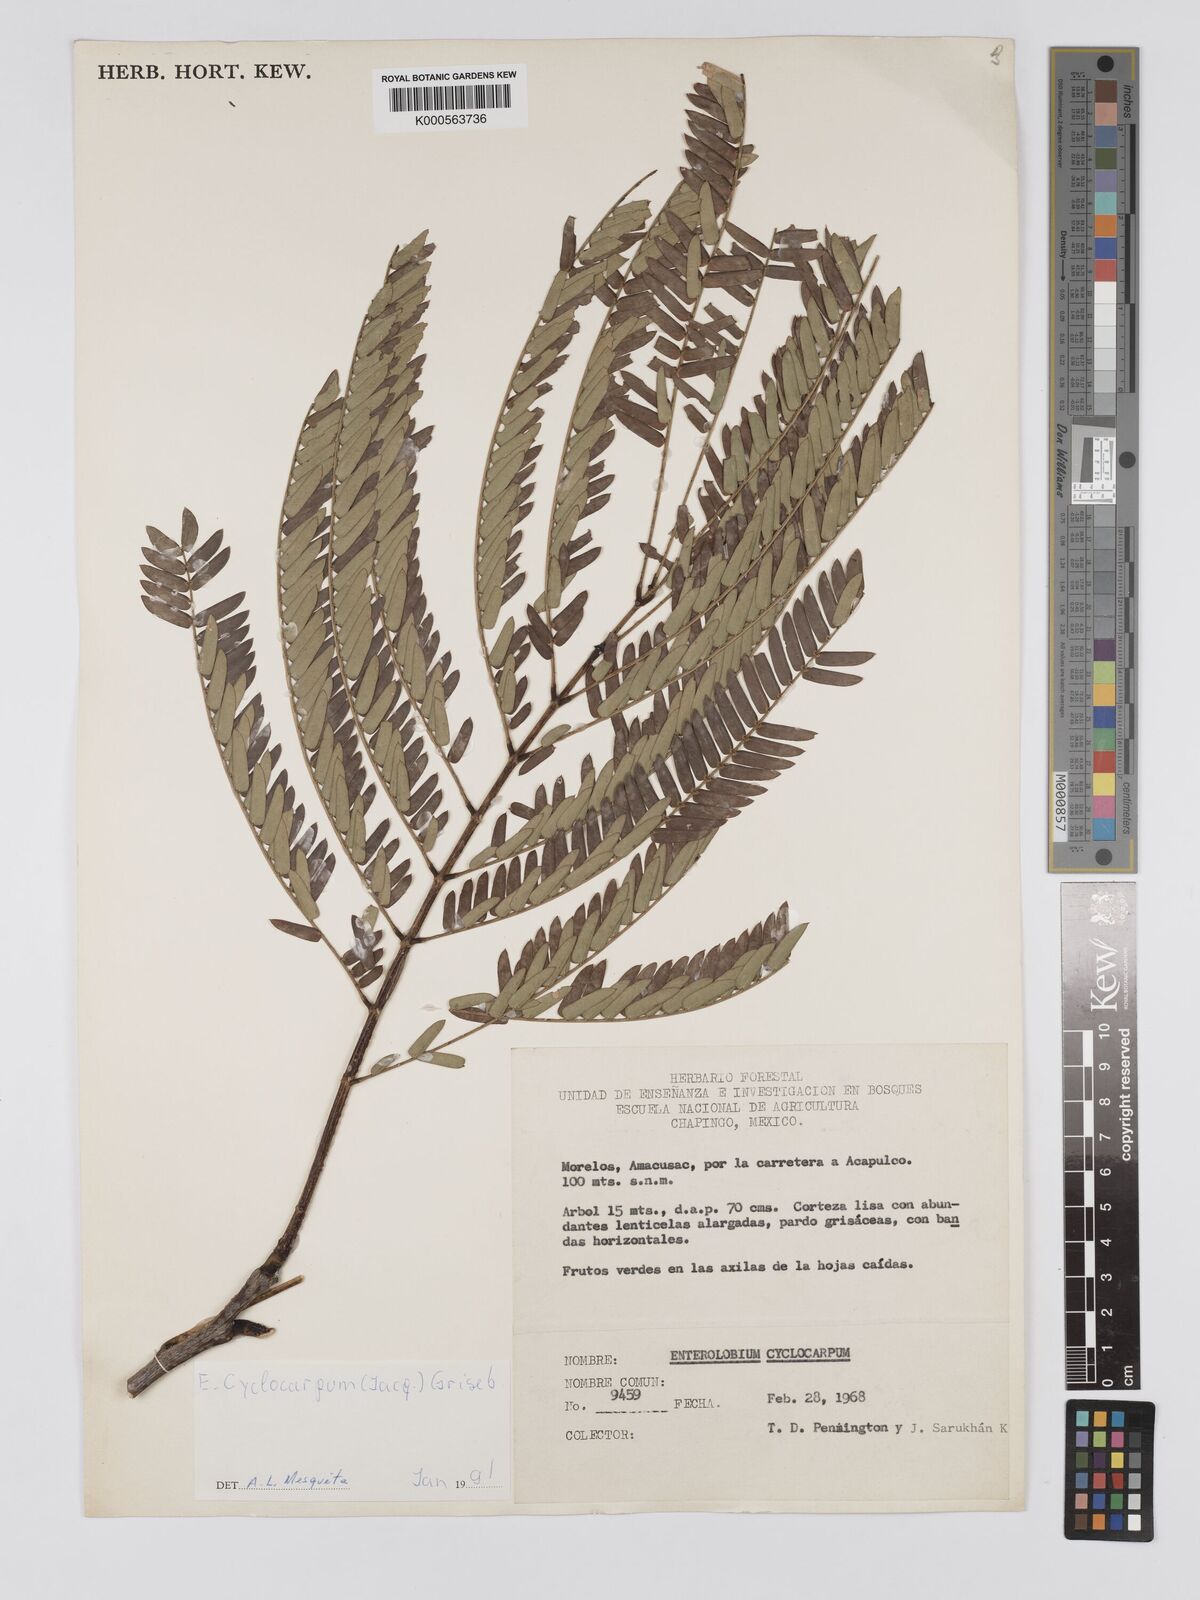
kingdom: Plantae
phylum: Tracheophyta
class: Magnoliopsida
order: Fabales
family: Fabaceae
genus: Enterolobium
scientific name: Enterolobium cyclocarpum
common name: Ear tree
